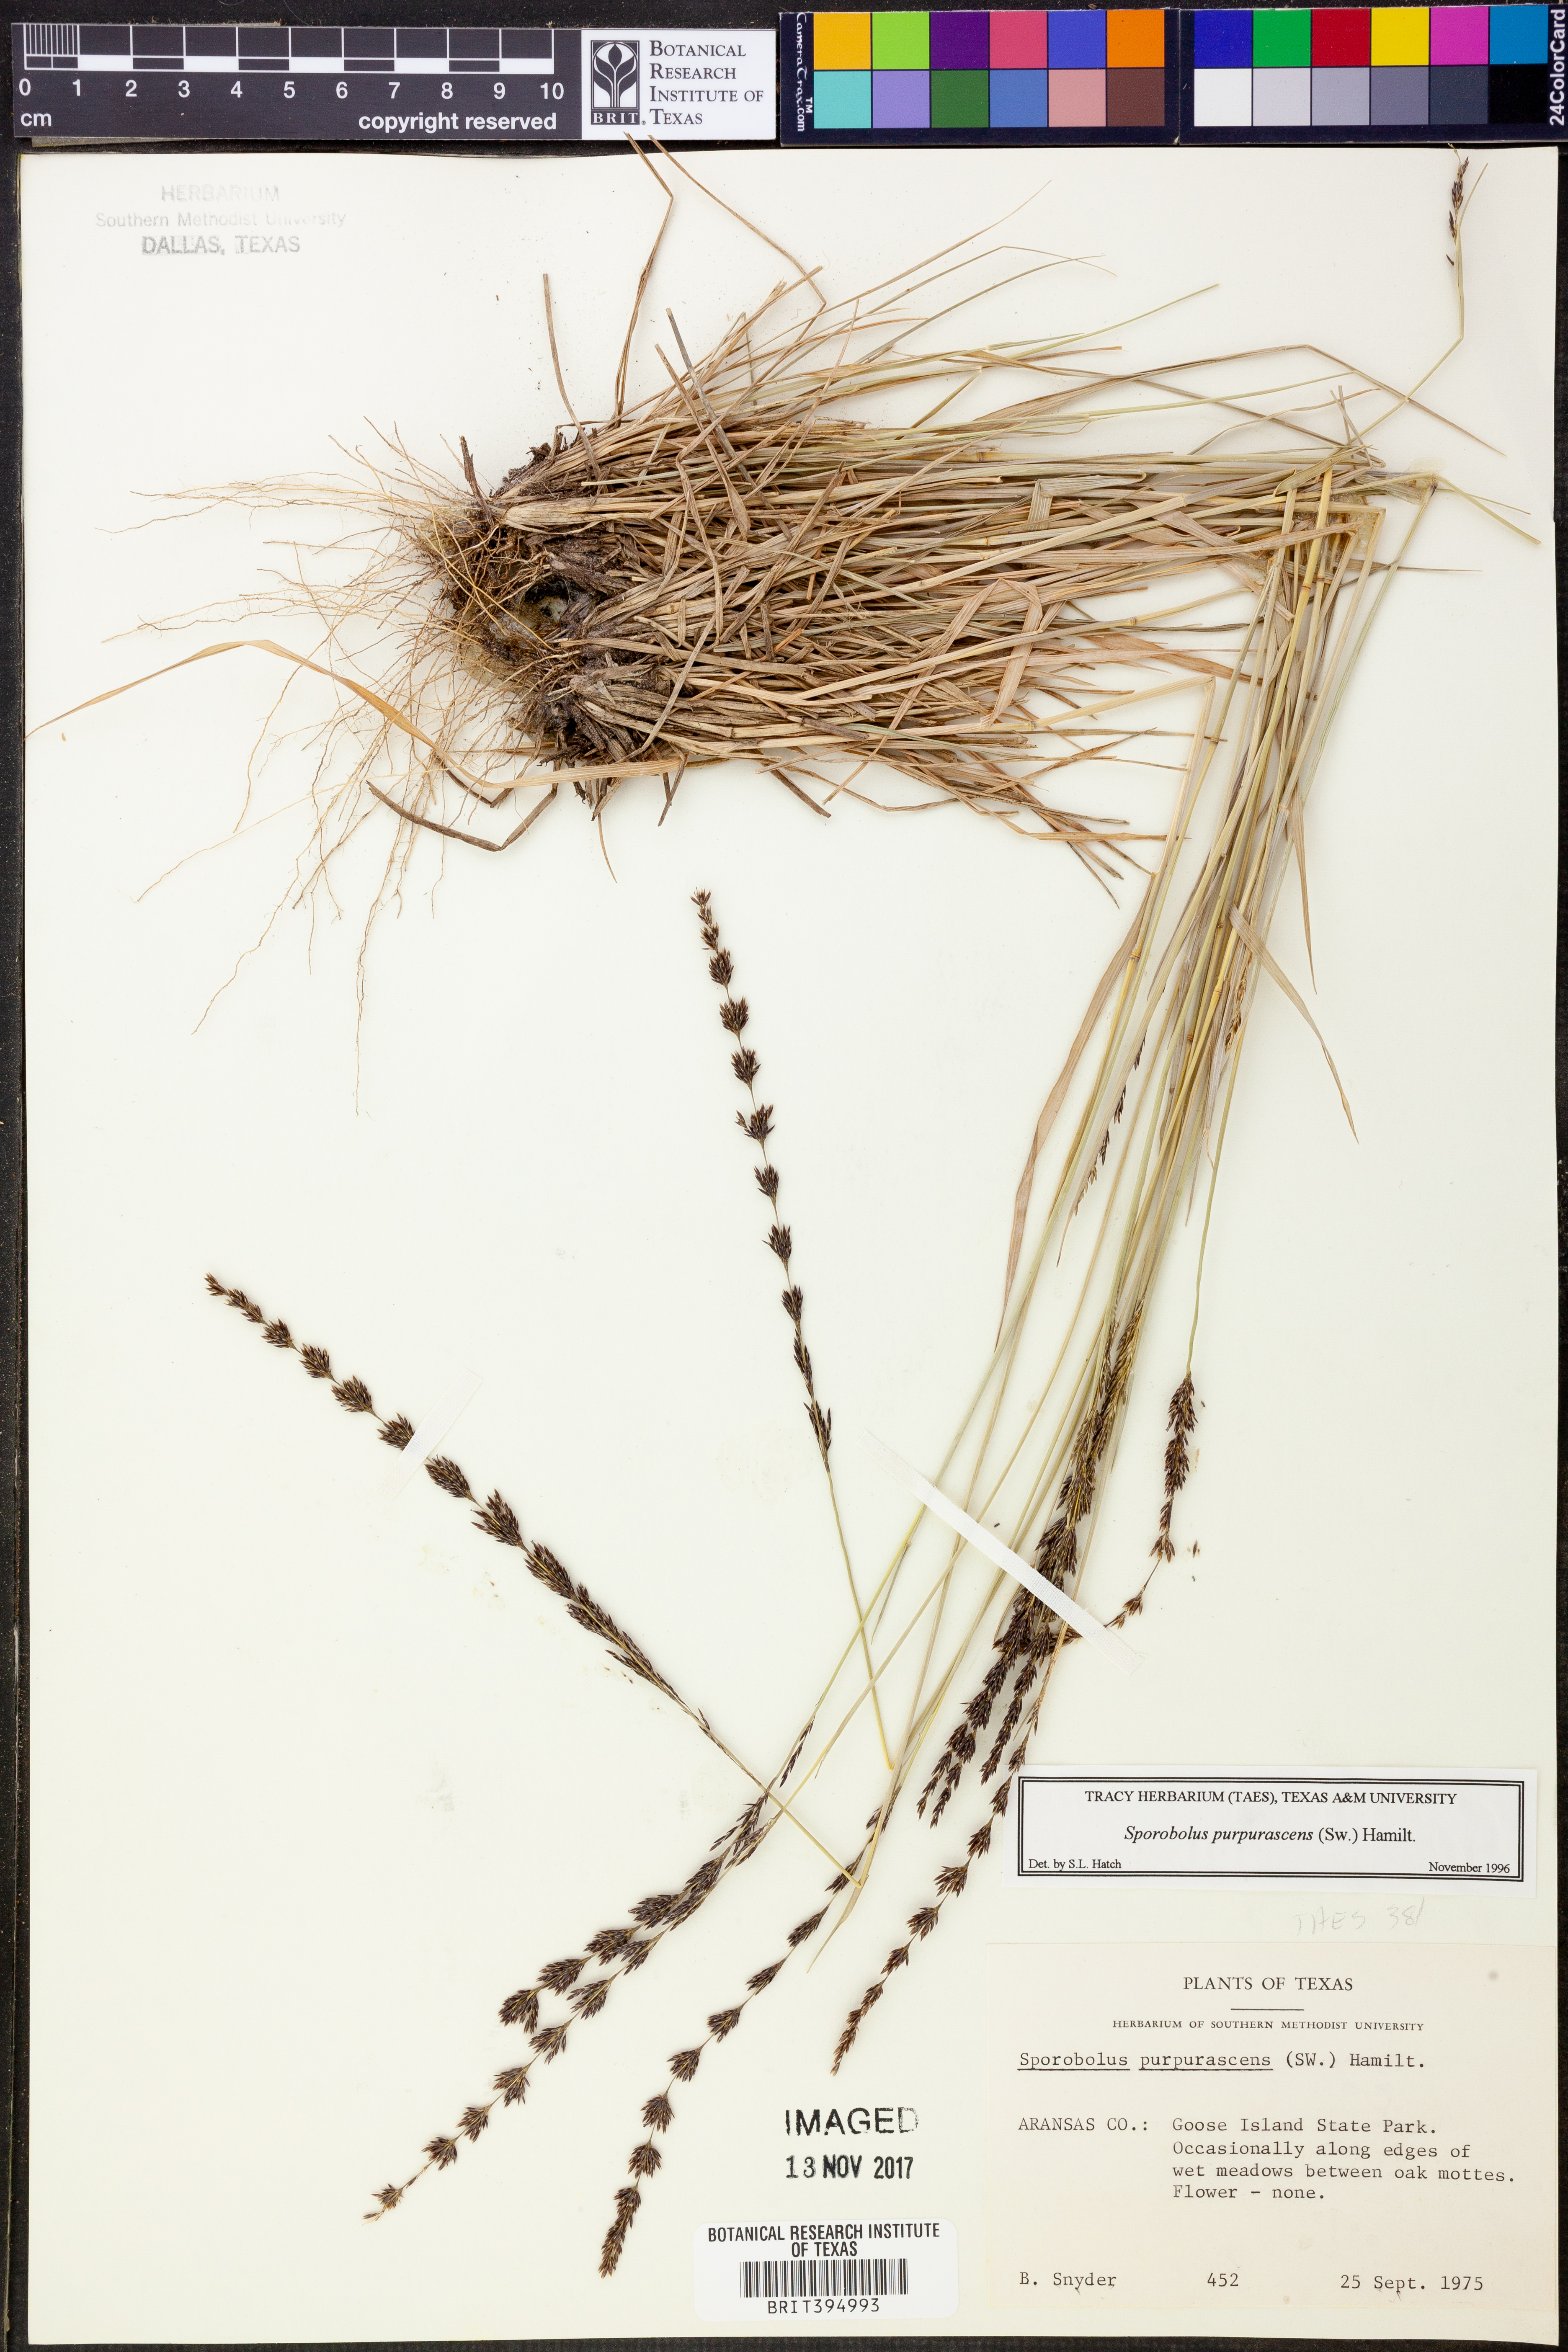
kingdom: Plantae
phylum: Tracheophyta
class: Liliopsida
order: Poales
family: Poaceae
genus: Sporobolus
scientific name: Sporobolus purpurascens
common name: Purple dropseed
